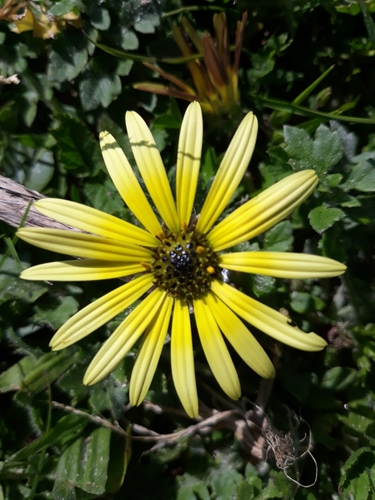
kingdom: Plantae
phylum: Tracheophyta
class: Magnoliopsida
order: Asterales
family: Asteraceae
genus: Arctotheca
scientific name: Arctotheca calendula
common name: Capeweed
